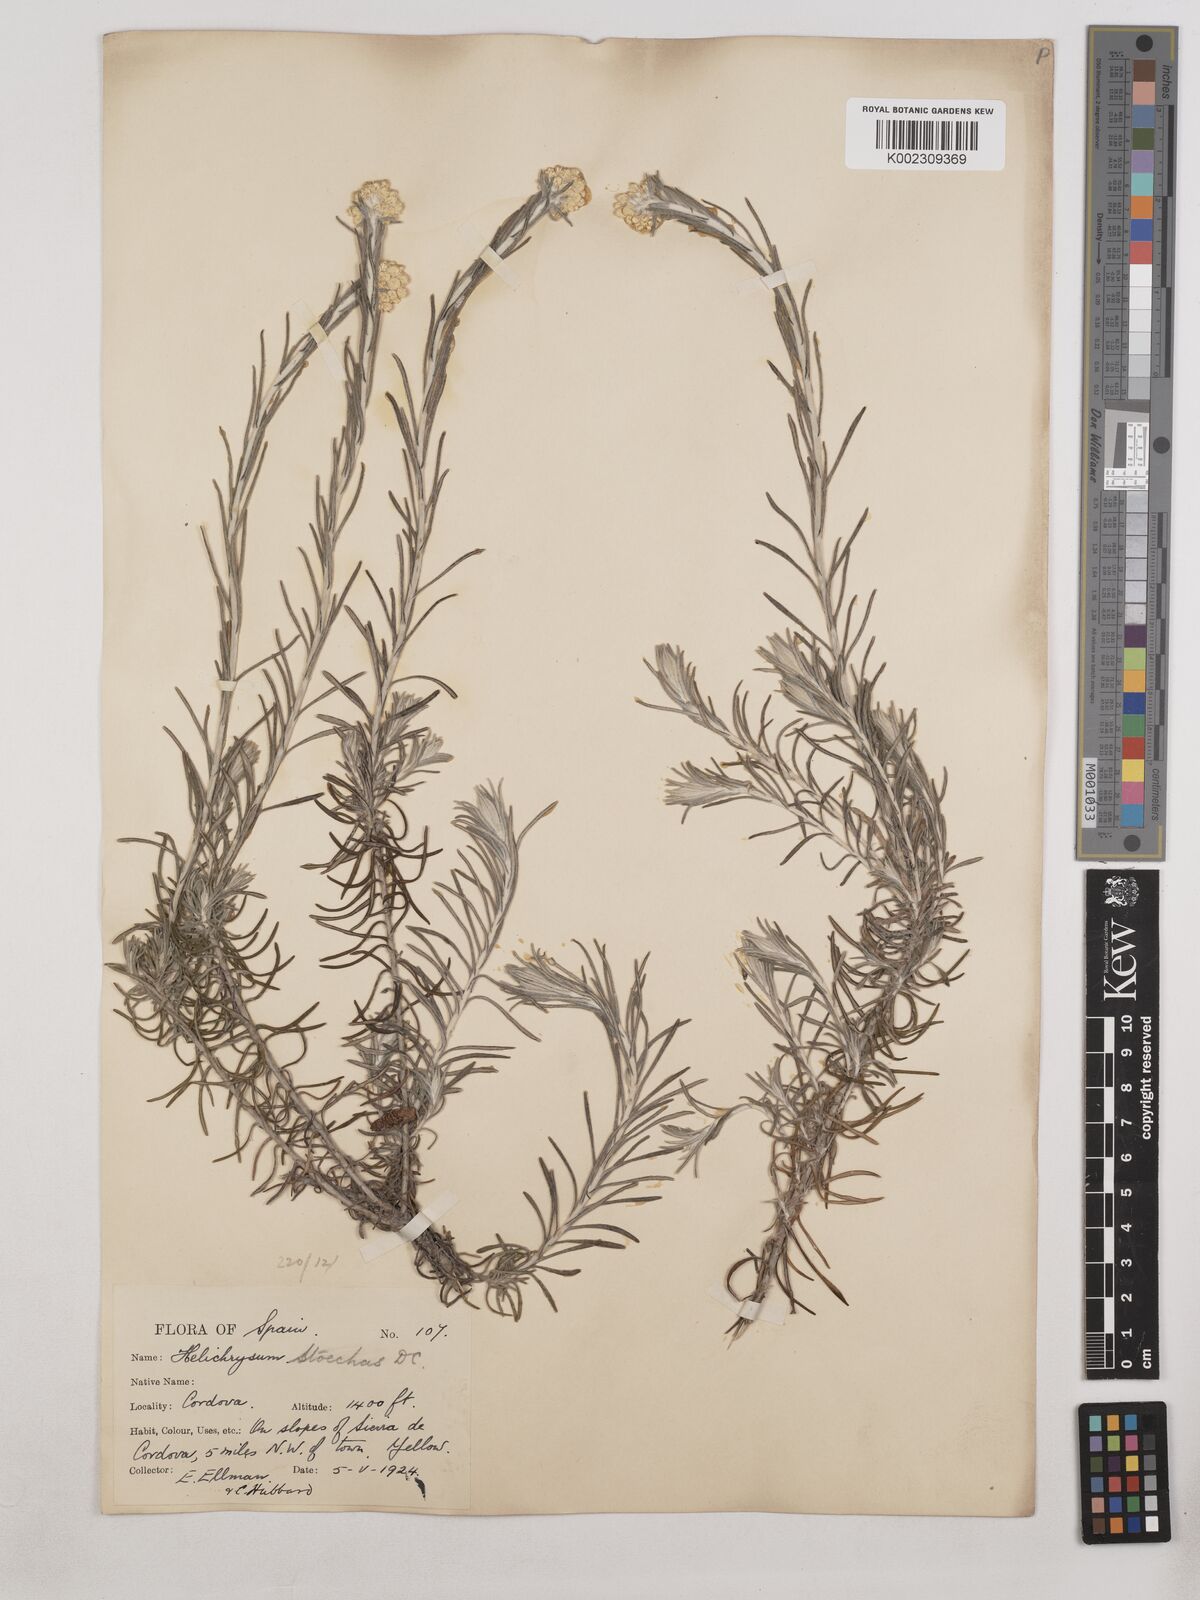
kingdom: Plantae
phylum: Tracheophyta
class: Magnoliopsida
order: Asterales
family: Asteraceae
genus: Helichrysum
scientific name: Helichrysum
